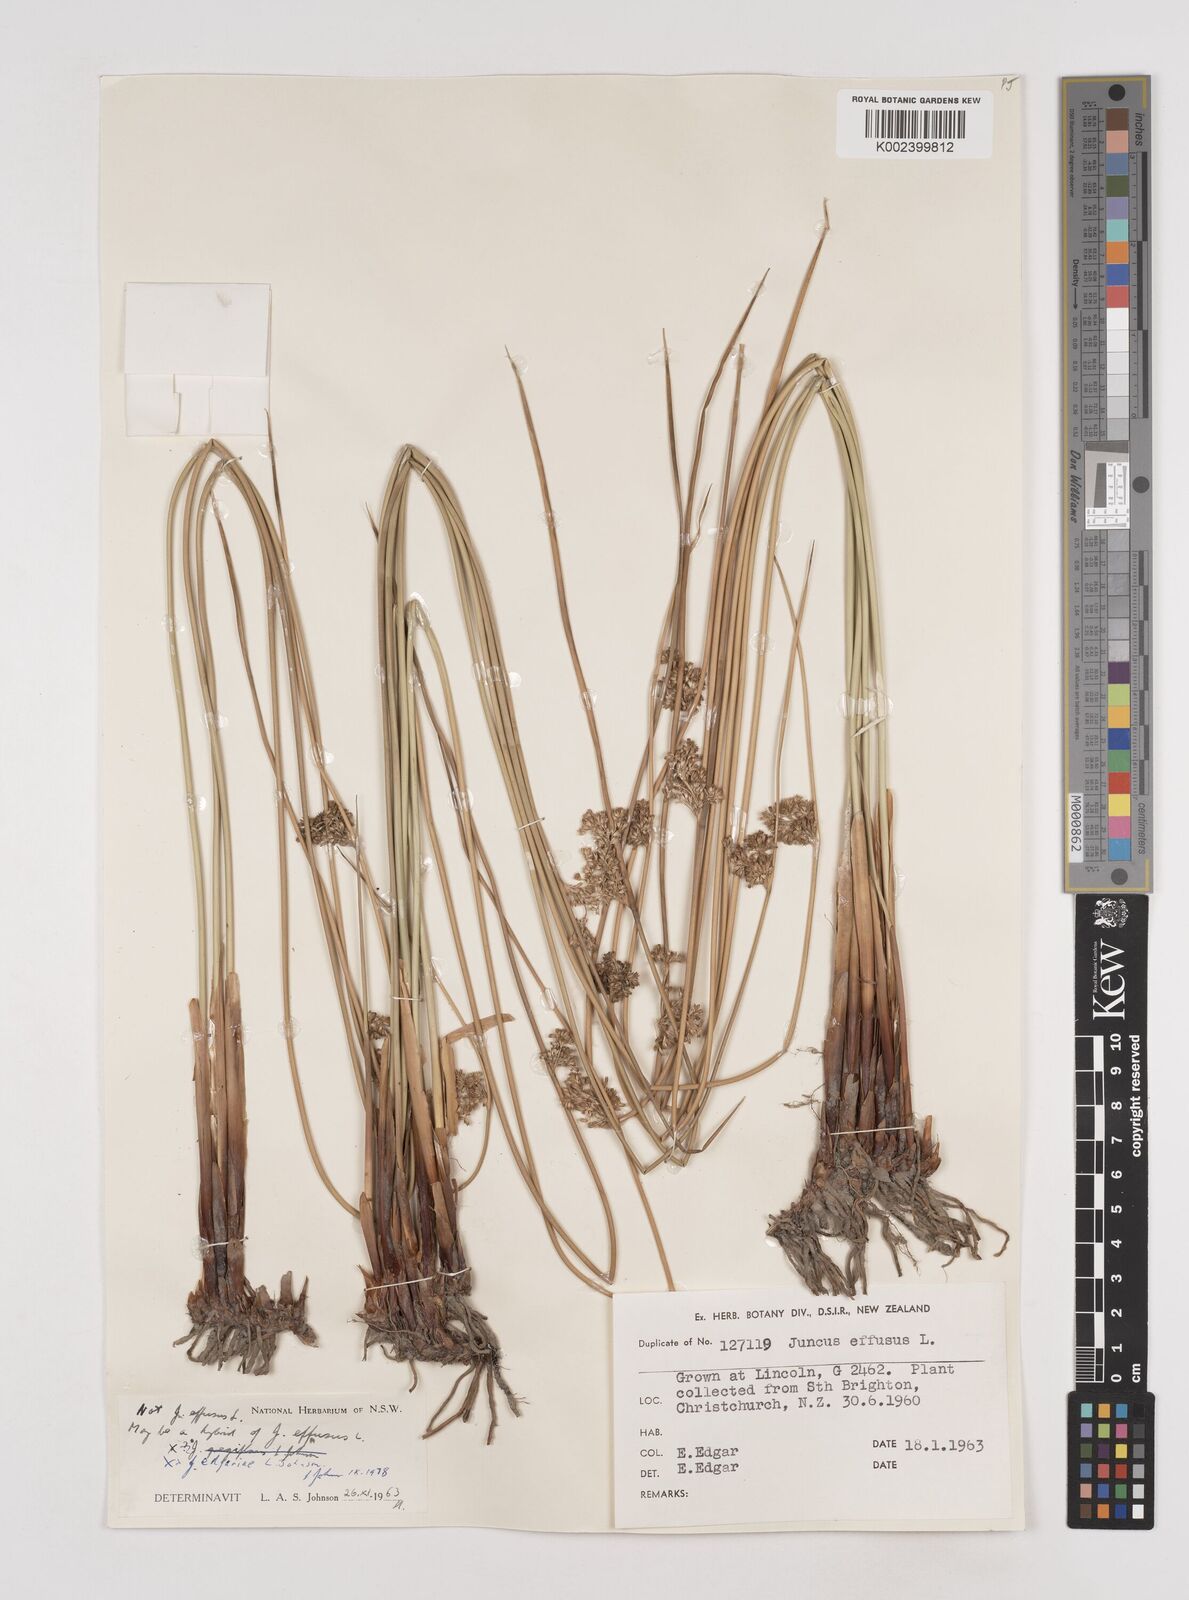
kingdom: Plantae
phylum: Tracheophyta
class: Liliopsida
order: Poales
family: Juncaceae
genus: Juncus
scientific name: Juncus effusus
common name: Soft rush
